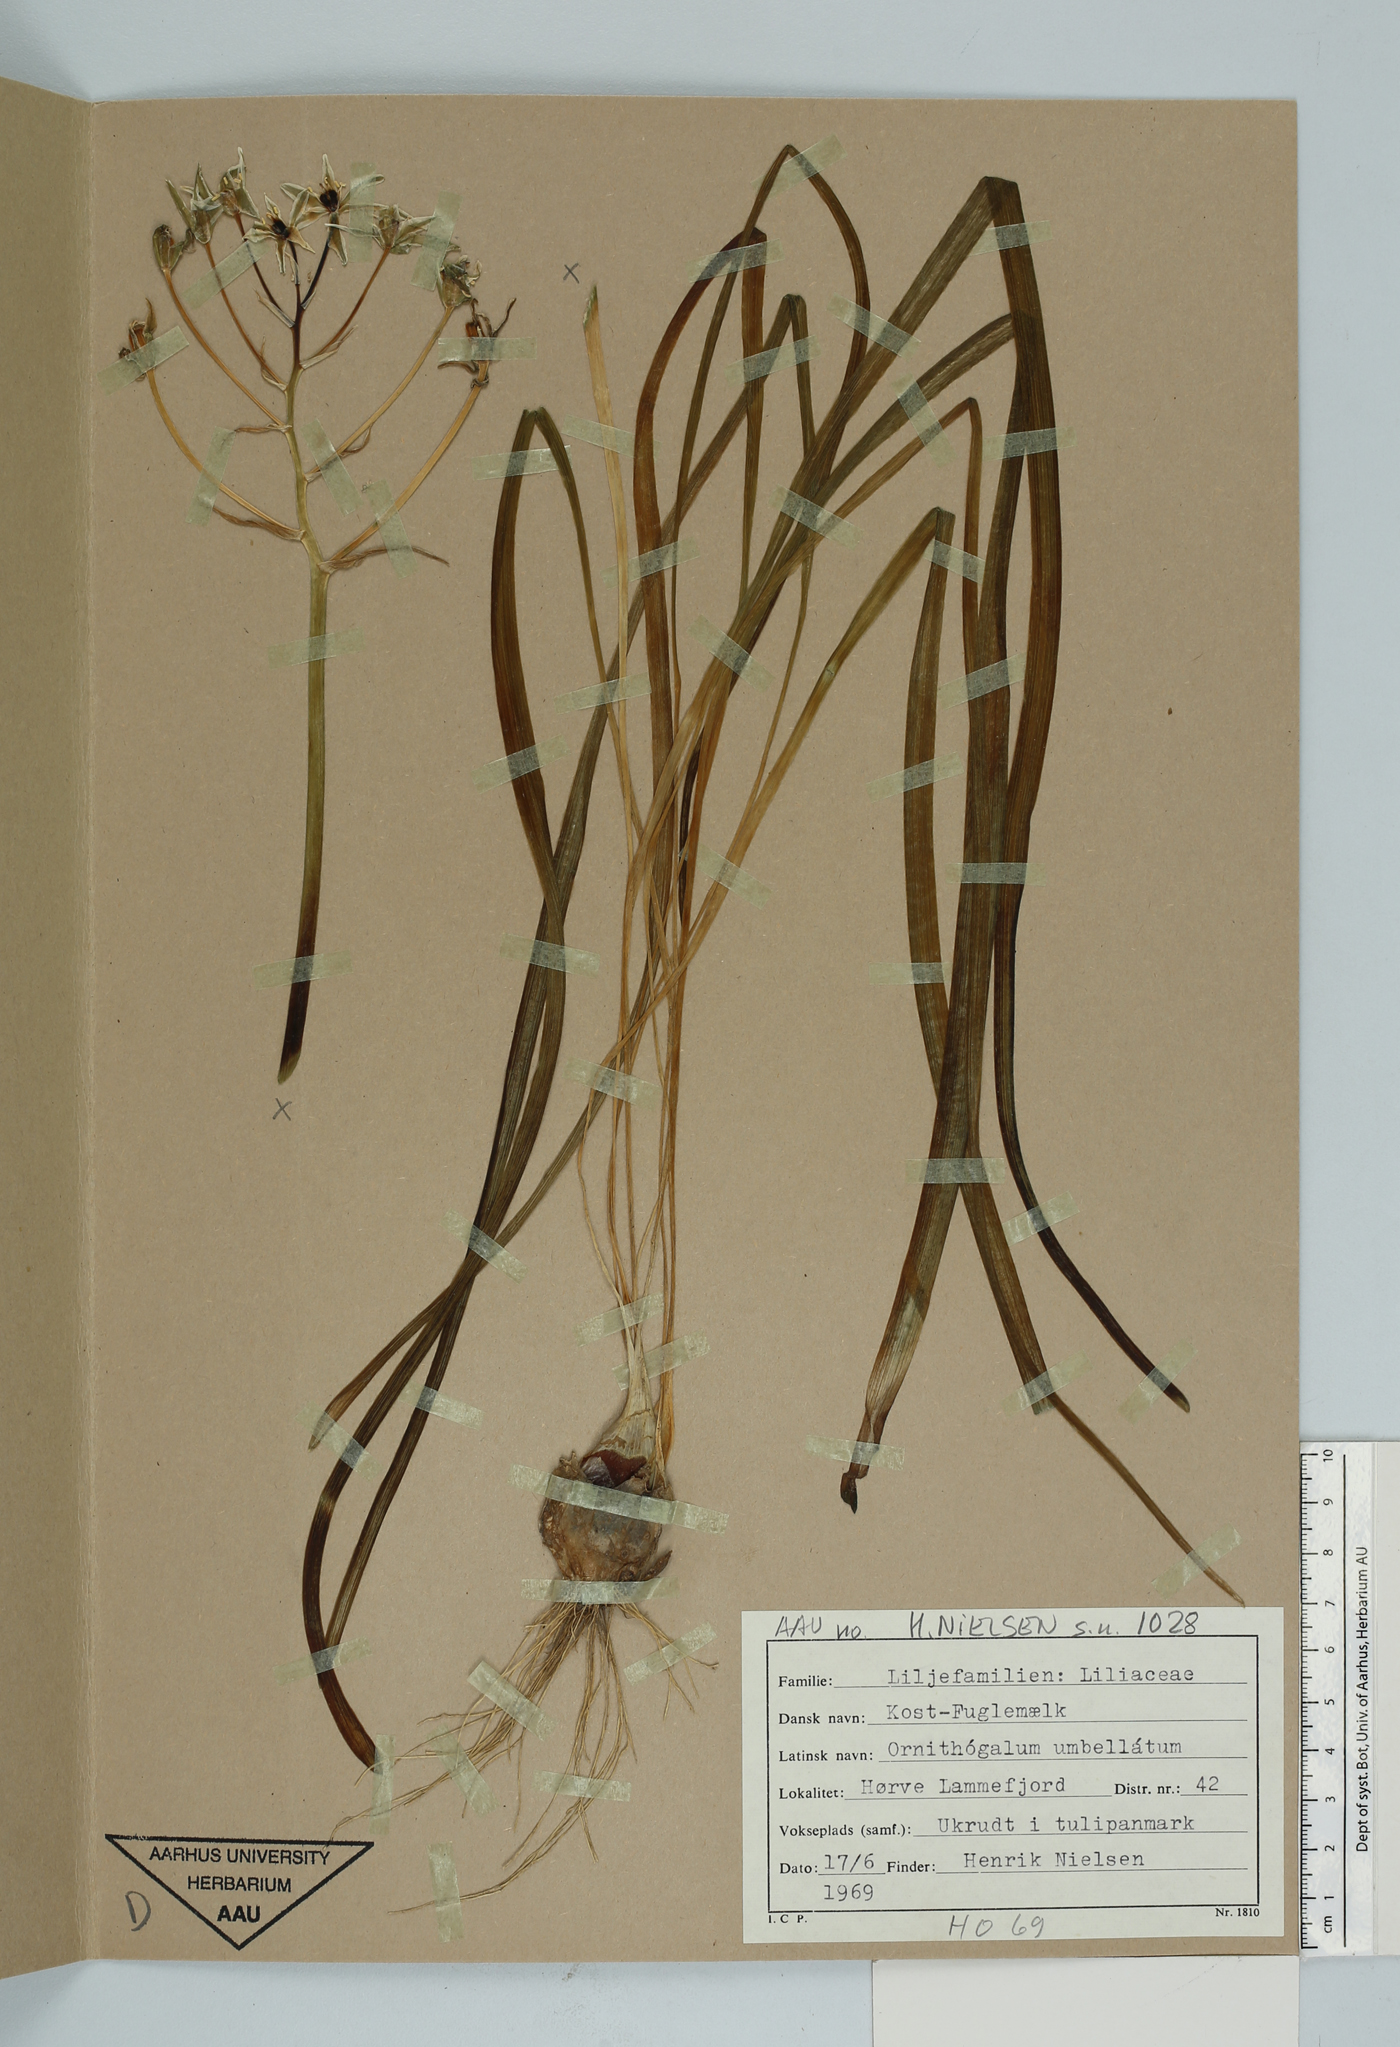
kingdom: Plantae
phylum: Tracheophyta
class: Liliopsida
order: Asparagales
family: Asparagaceae
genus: Ornithogalum
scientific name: Ornithogalum umbellatum
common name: Garden star-of-bethlehem
